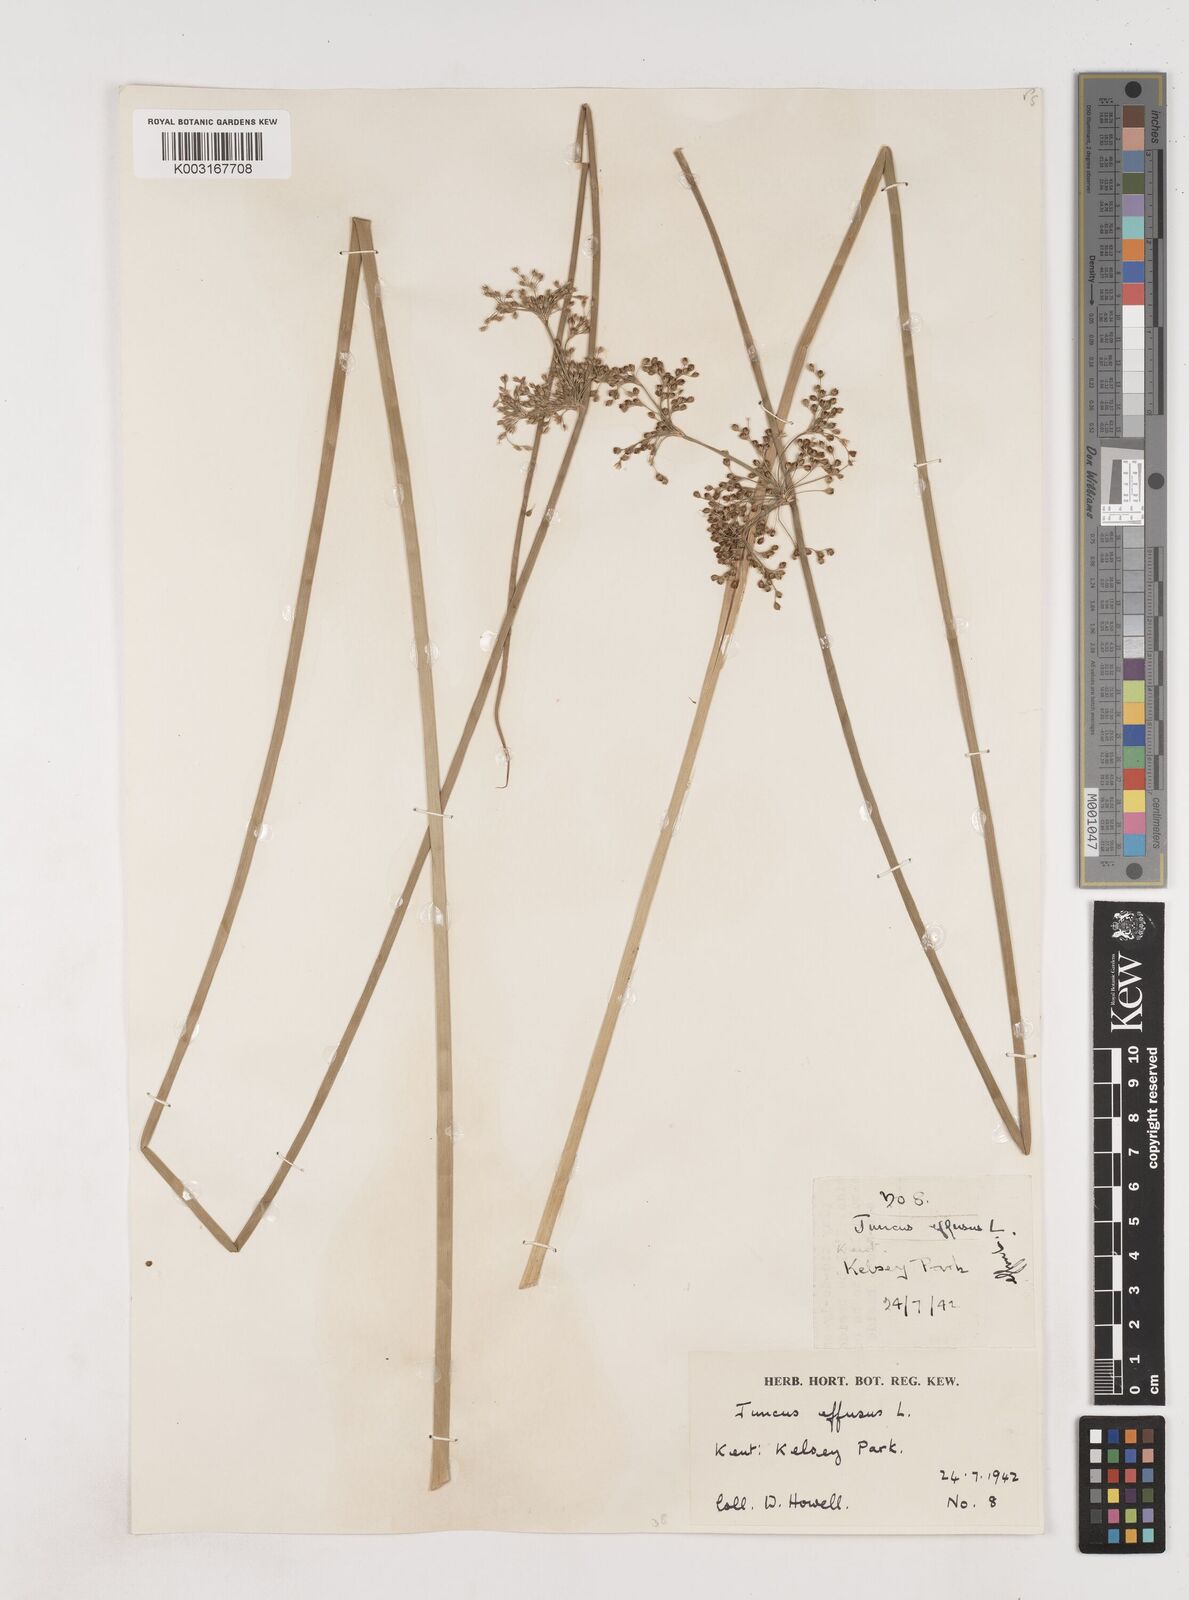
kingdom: Plantae
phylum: Tracheophyta
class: Liliopsida
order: Poales
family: Juncaceae
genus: Juncus
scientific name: Juncus effusus
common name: Soft rush
